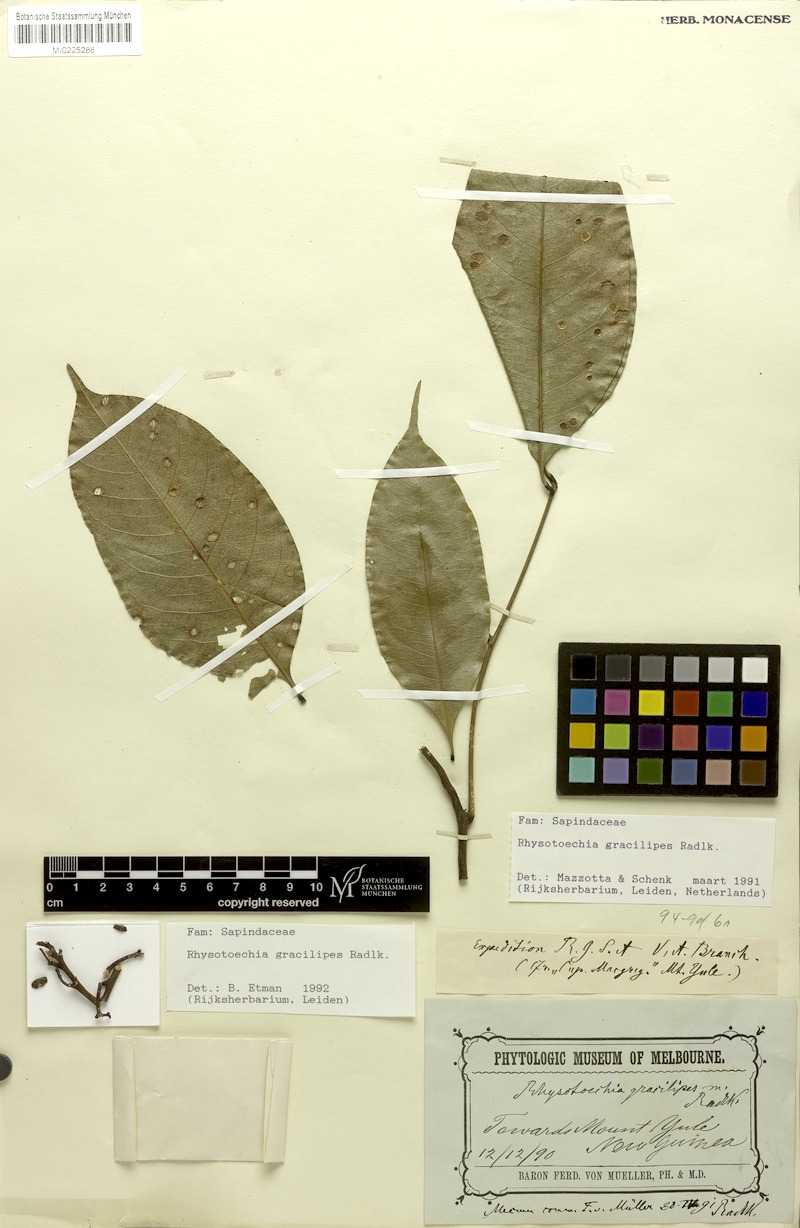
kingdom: Plantae
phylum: Tracheophyta
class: Magnoliopsida
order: Sapindales
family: Sapindaceae
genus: Rhysotoechia
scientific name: Rhysotoechia gracilipes
